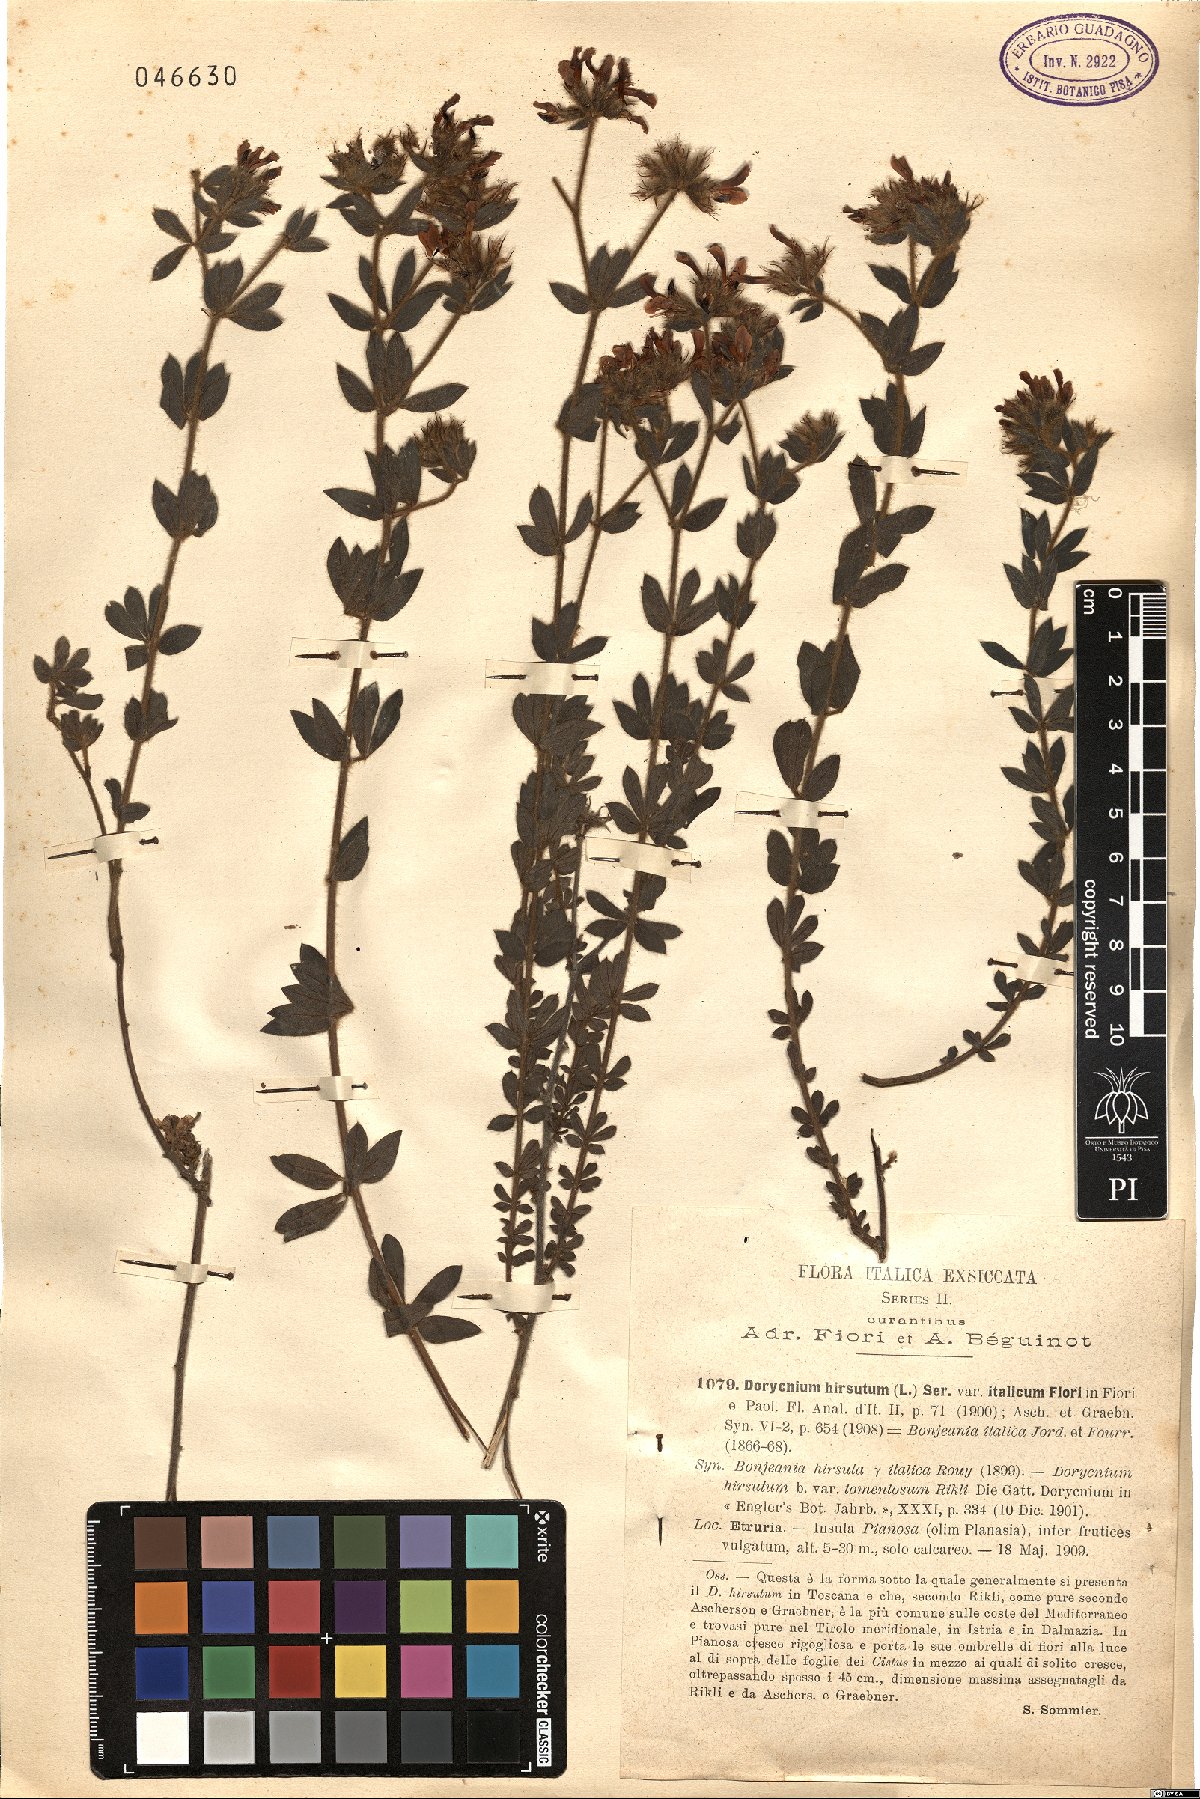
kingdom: Plantae
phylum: Tracheophyta
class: Magnoliopsida
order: Fabales
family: Fabaceae
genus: Lotus
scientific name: Lotus hirsutus
